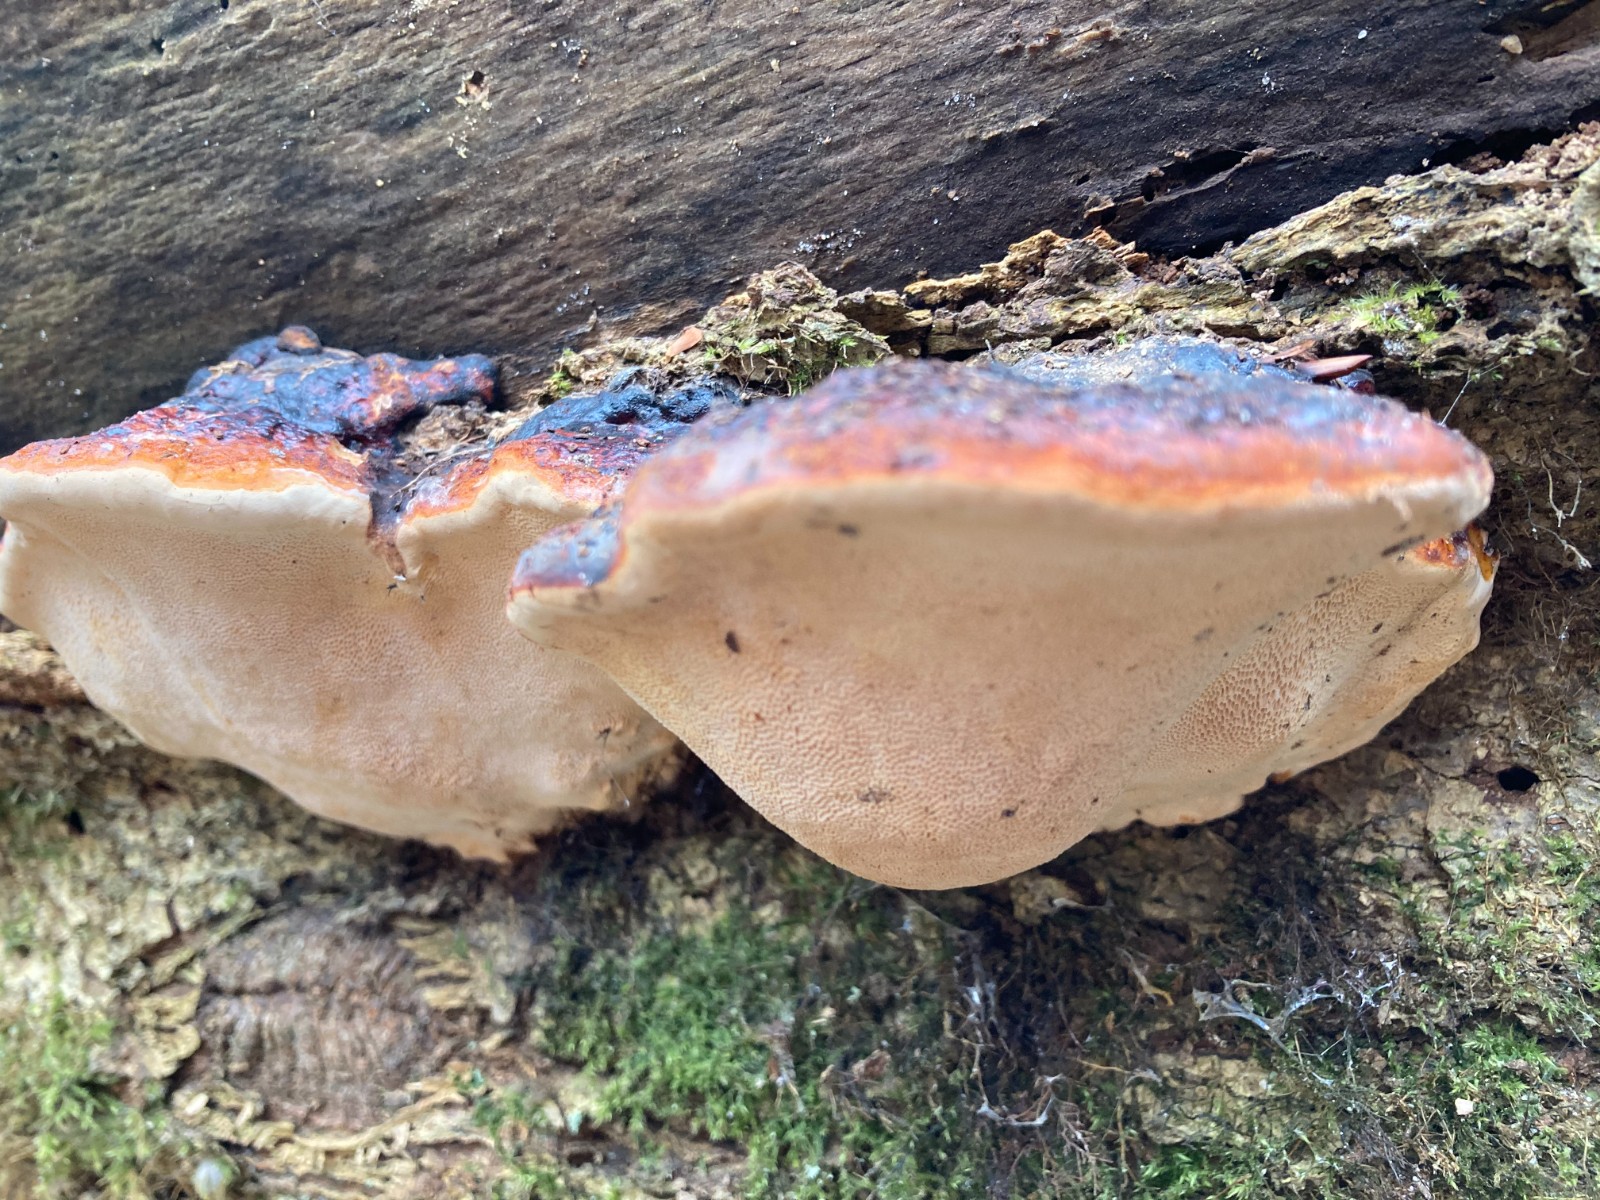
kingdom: Fungi
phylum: Basidiomycota
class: Agaricomycetes
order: Polyporales
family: Fomitopsidaceae
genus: Fomitopsis
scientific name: Fomitopsis pinicola
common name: randbæltet hovporesvamp
